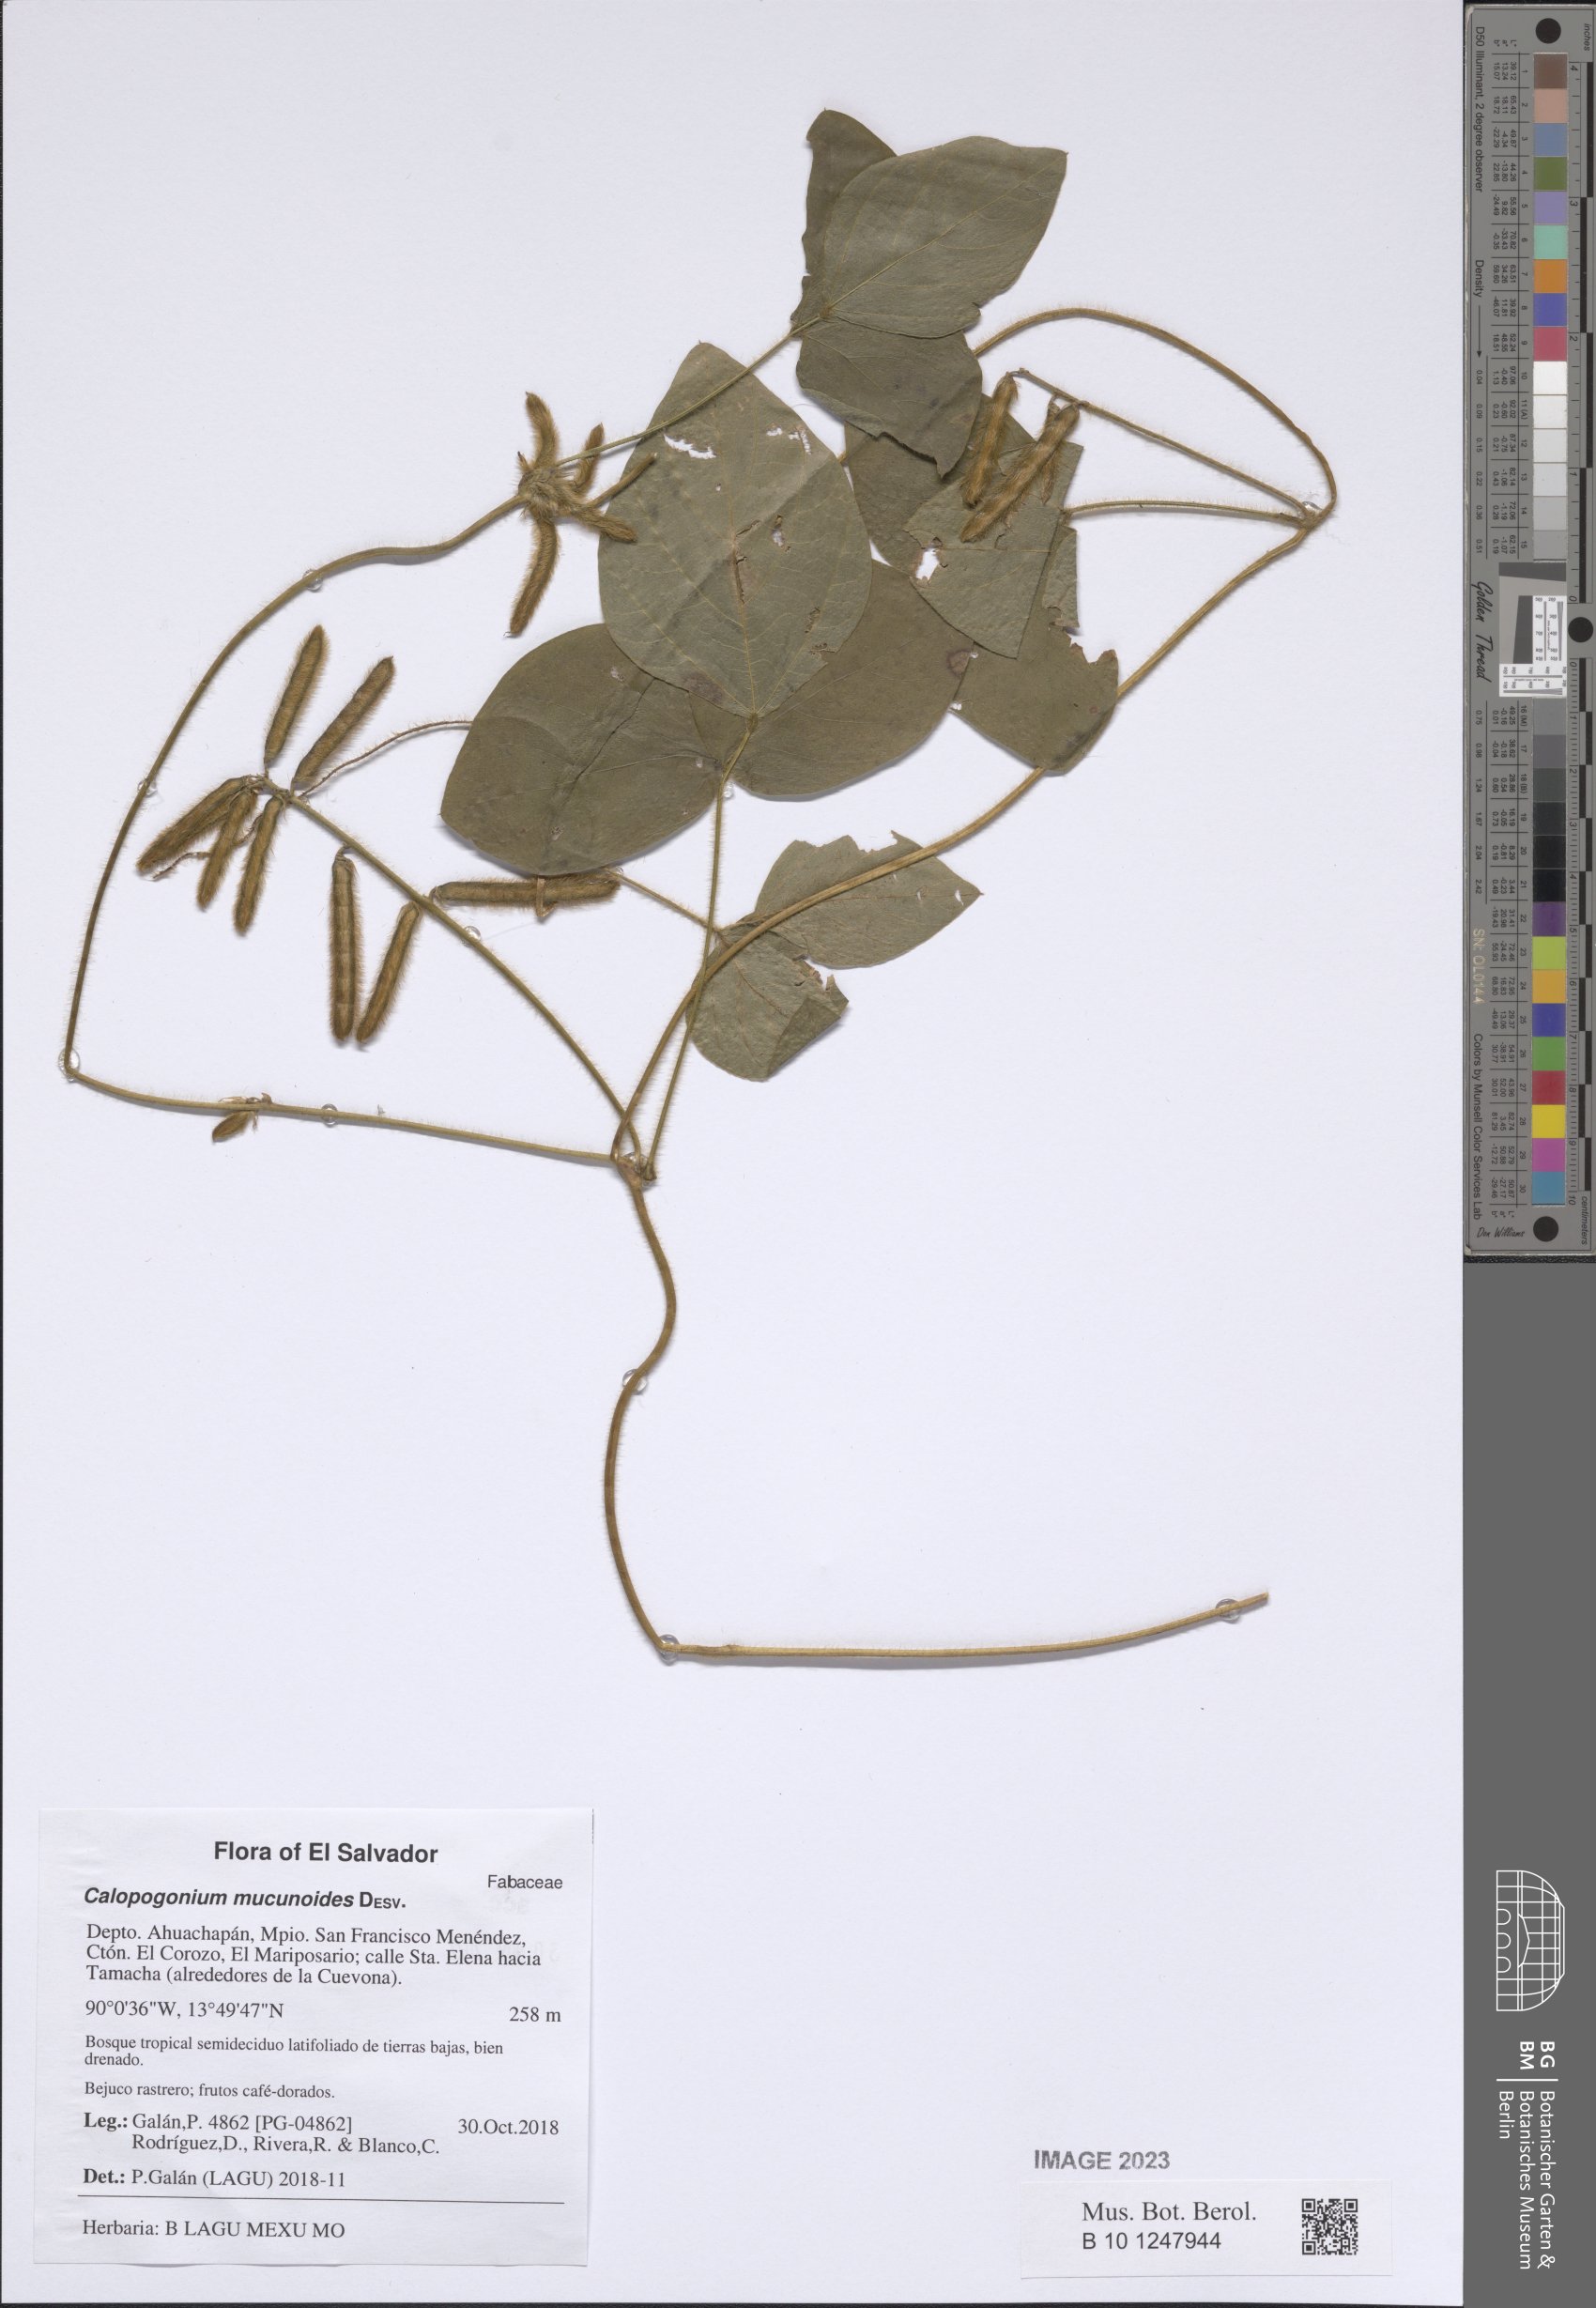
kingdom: Plantae
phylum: Tracheophyta
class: Magnoliopsida
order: Fabales
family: Fabaceae
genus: Calopogonium
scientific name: Calopogonium mucunoides
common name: Calopo
